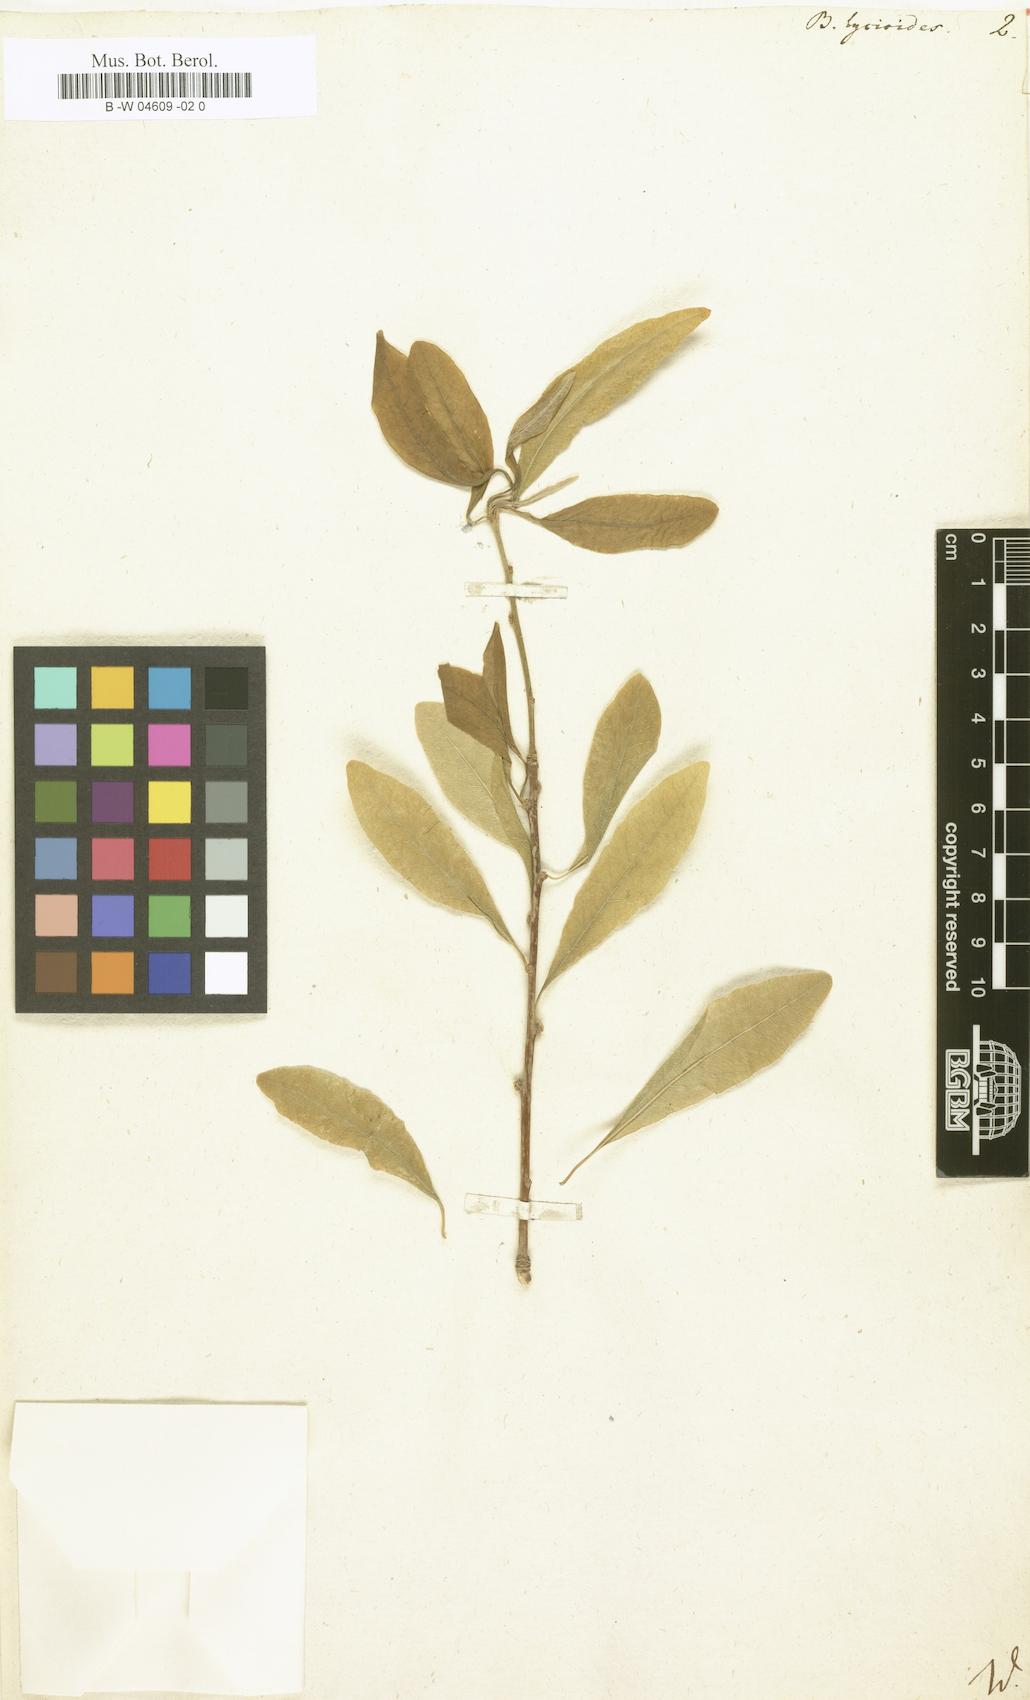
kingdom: Plantae
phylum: Tracheophyta
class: Magnoliopsida
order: Ericales
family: Sapotaceae
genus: Sideroxylon
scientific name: Sideroxylon lycioides
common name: Buckthorn bumelia
